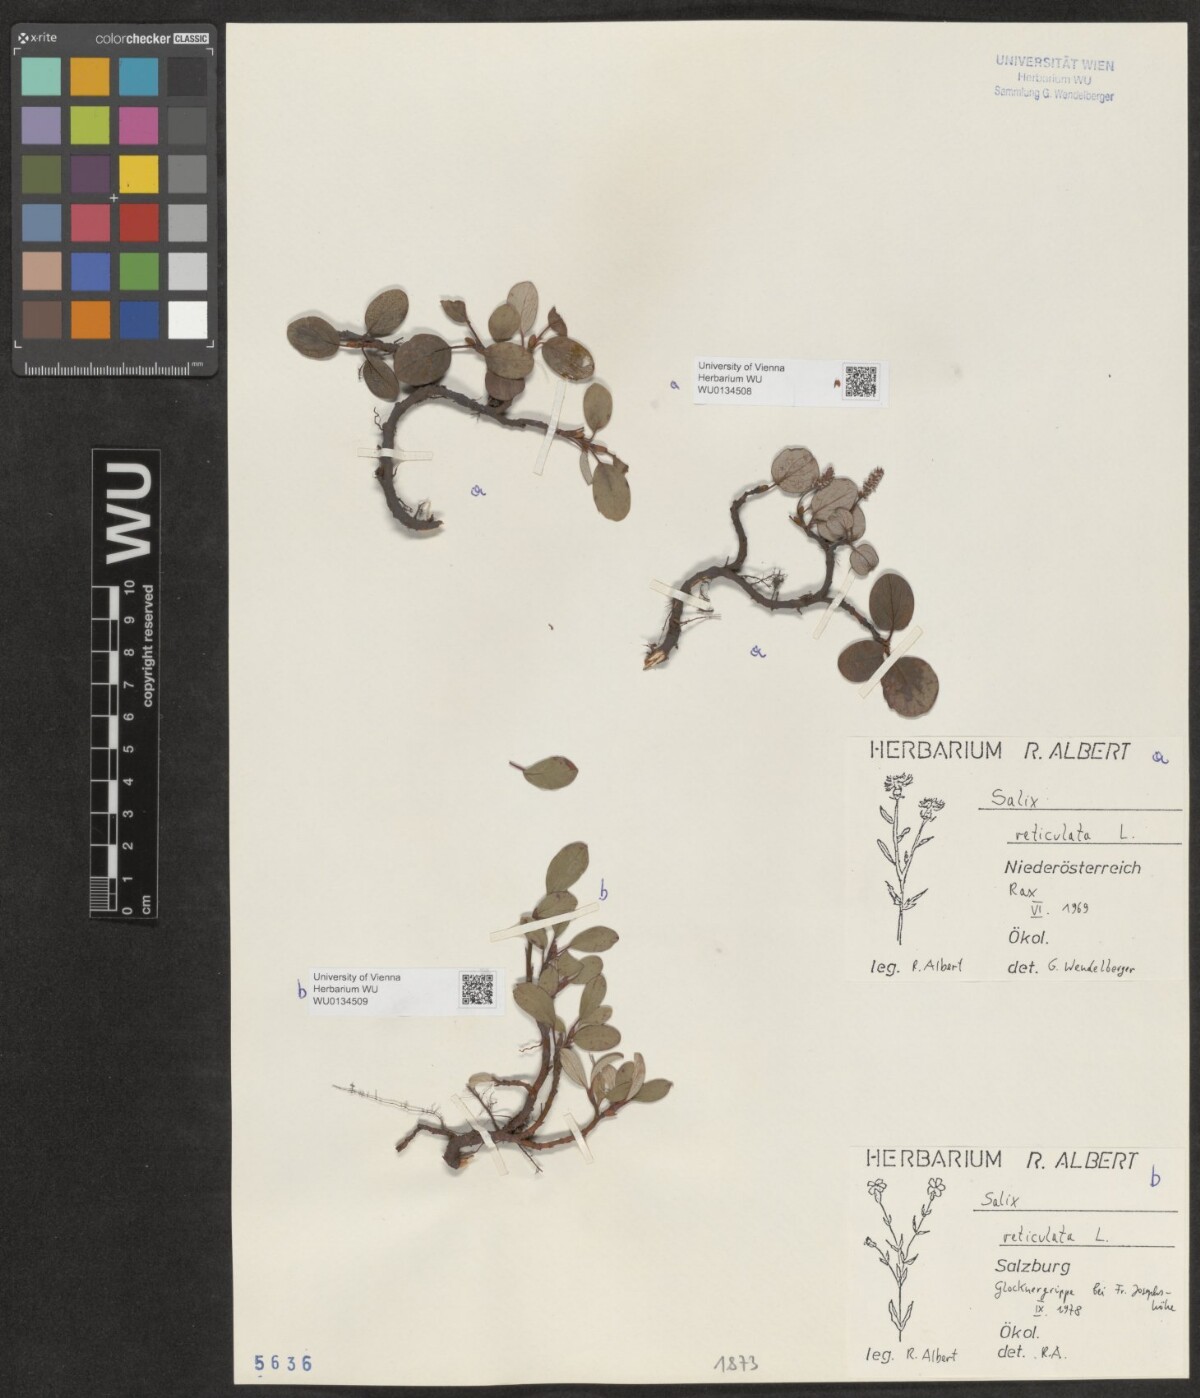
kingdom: Plantae
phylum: Tracheophyta
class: Magnoliopsida
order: Malpighiales
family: Salicaceae
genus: Salix
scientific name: Salix reticulata
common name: Net-leaved willow
